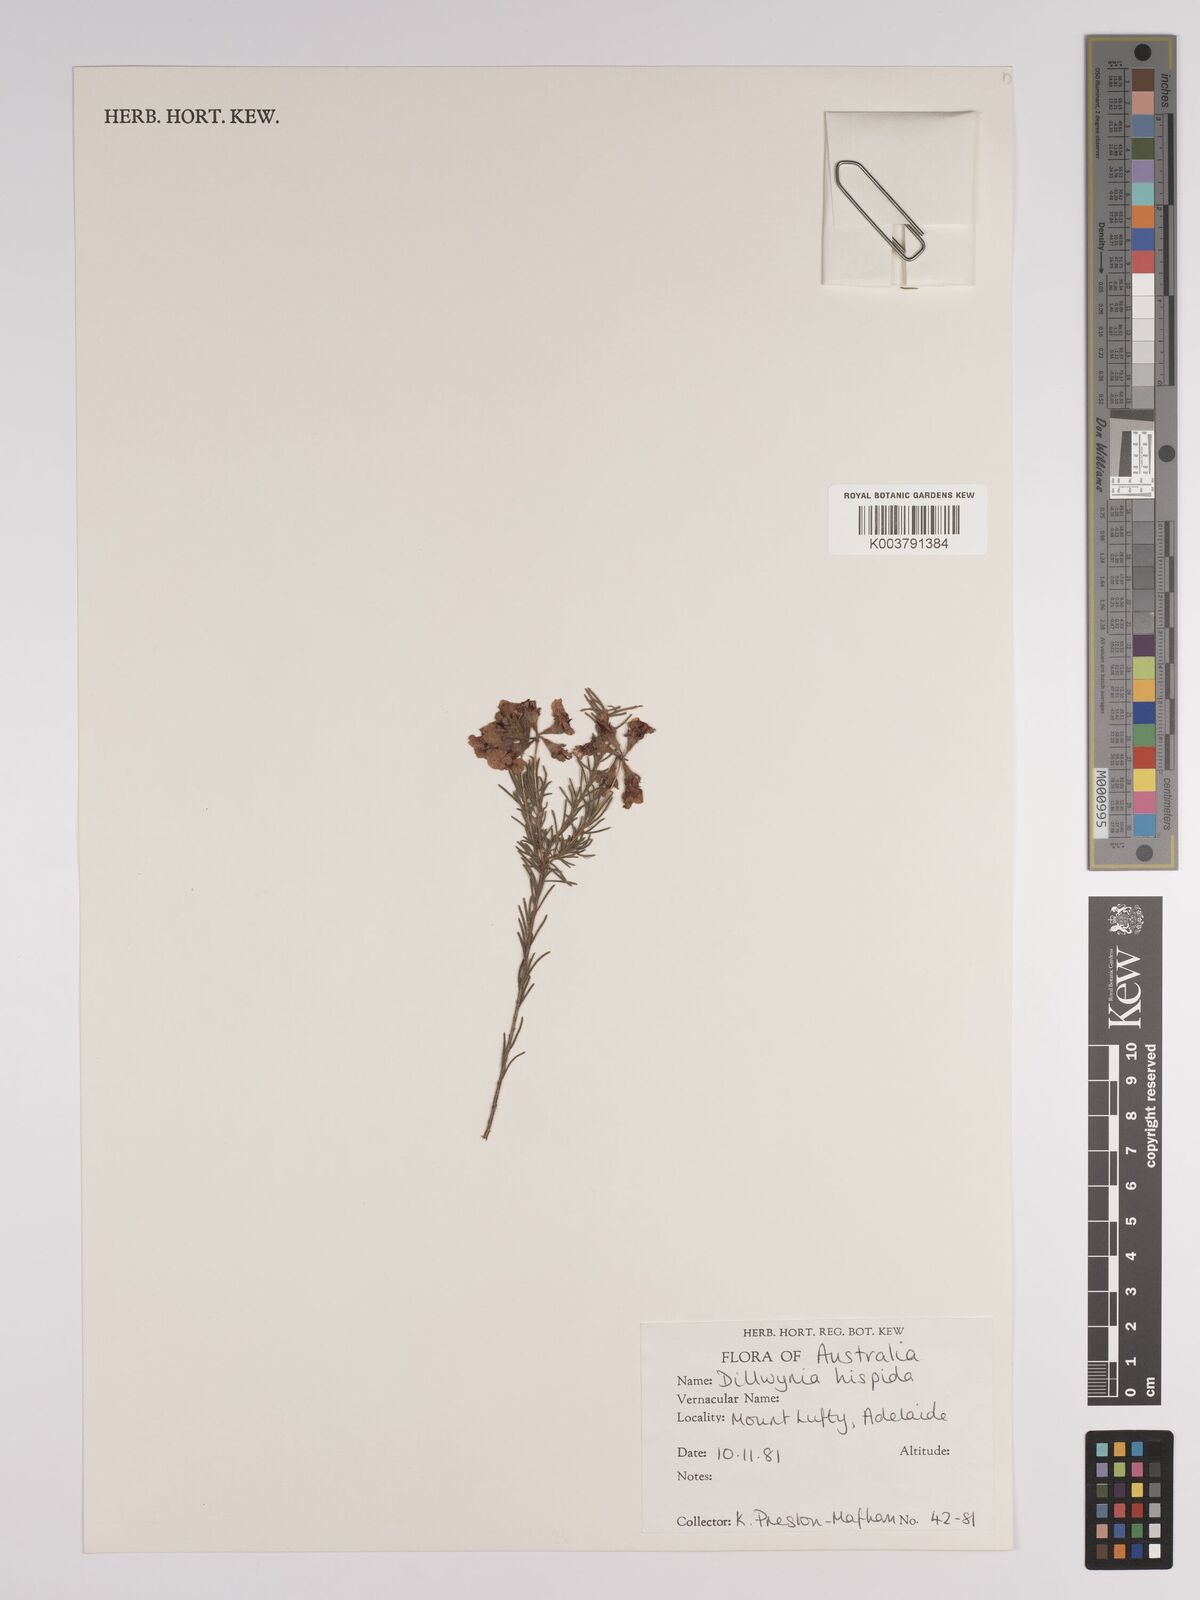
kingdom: Plantae
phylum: Tracheophyta
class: Magnoliopsida
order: Fabales
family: Fabaceae
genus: Dillwynia
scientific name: Dillwynia hispida
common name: Red parrot-pea
